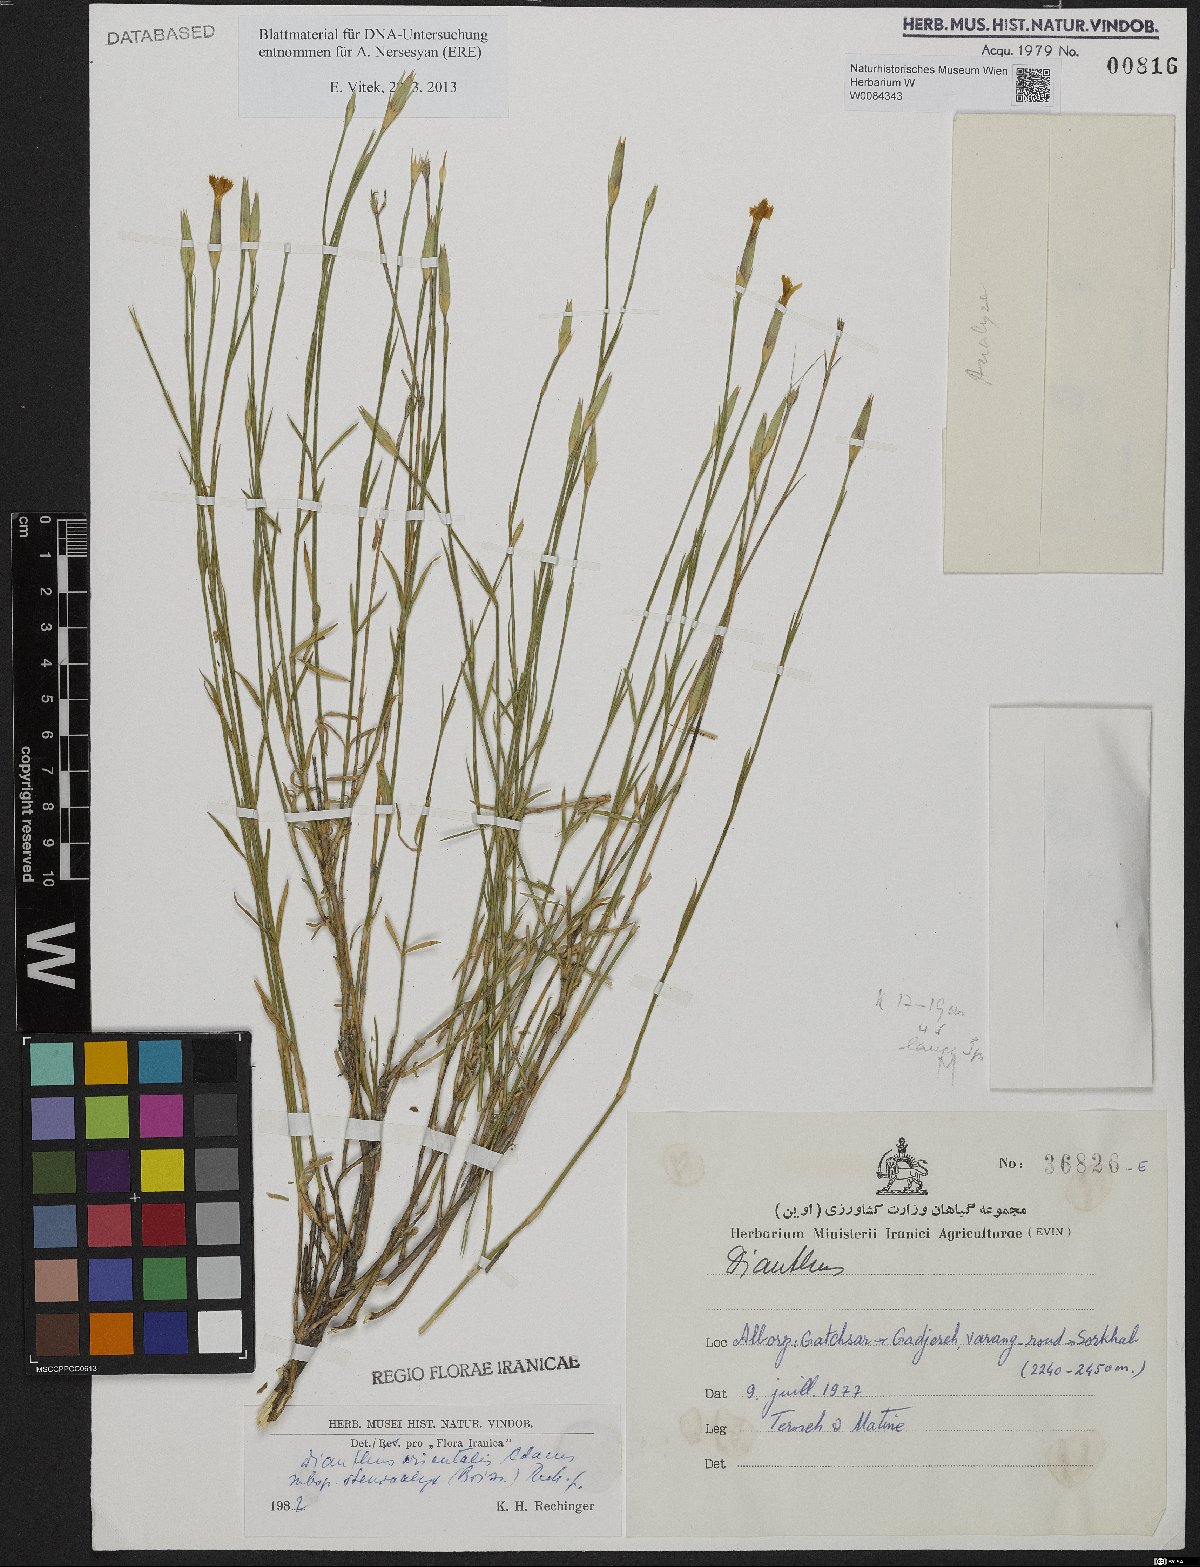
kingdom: Plantae
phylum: Tracheophyta
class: Magnoliopsida
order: Caryophyllales
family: Caryophyllaceae
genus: Dianthus
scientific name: Dianthus orientalis
